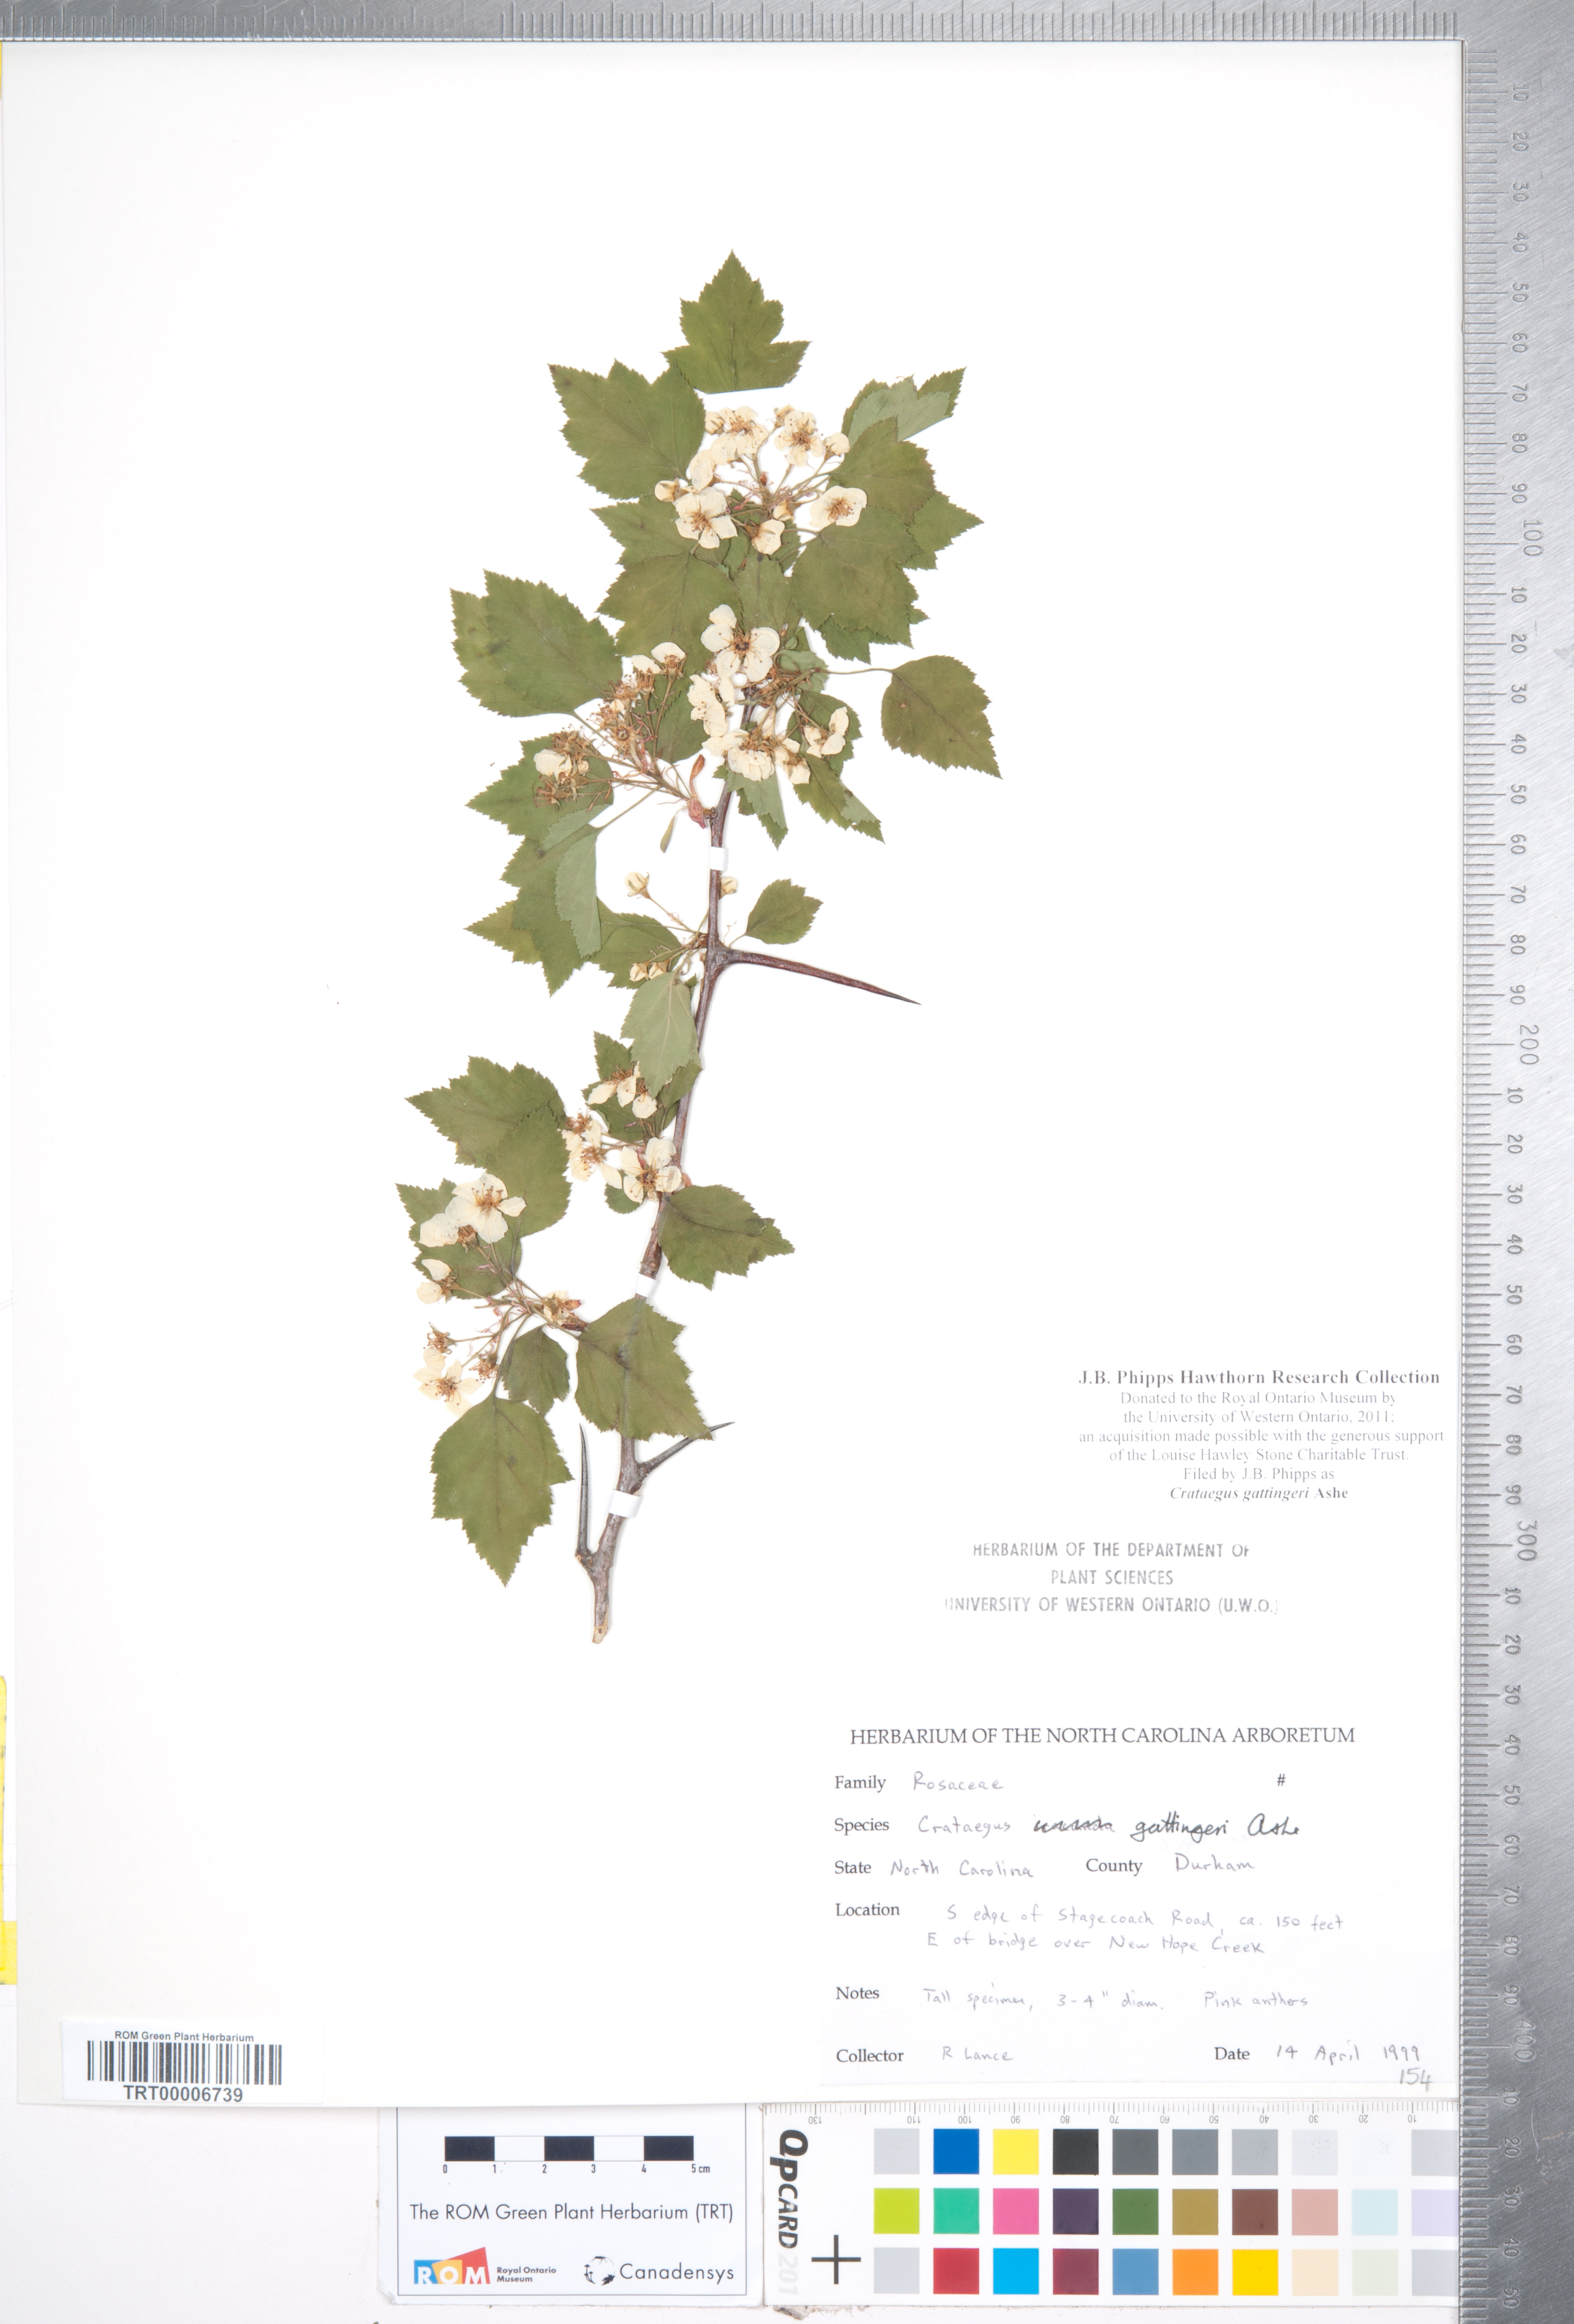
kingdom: Plantae
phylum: Tracheophyta
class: Magnoliopsida
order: Rosales
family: Rosaceae
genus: Crataegus
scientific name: Crataegus gattingeri
